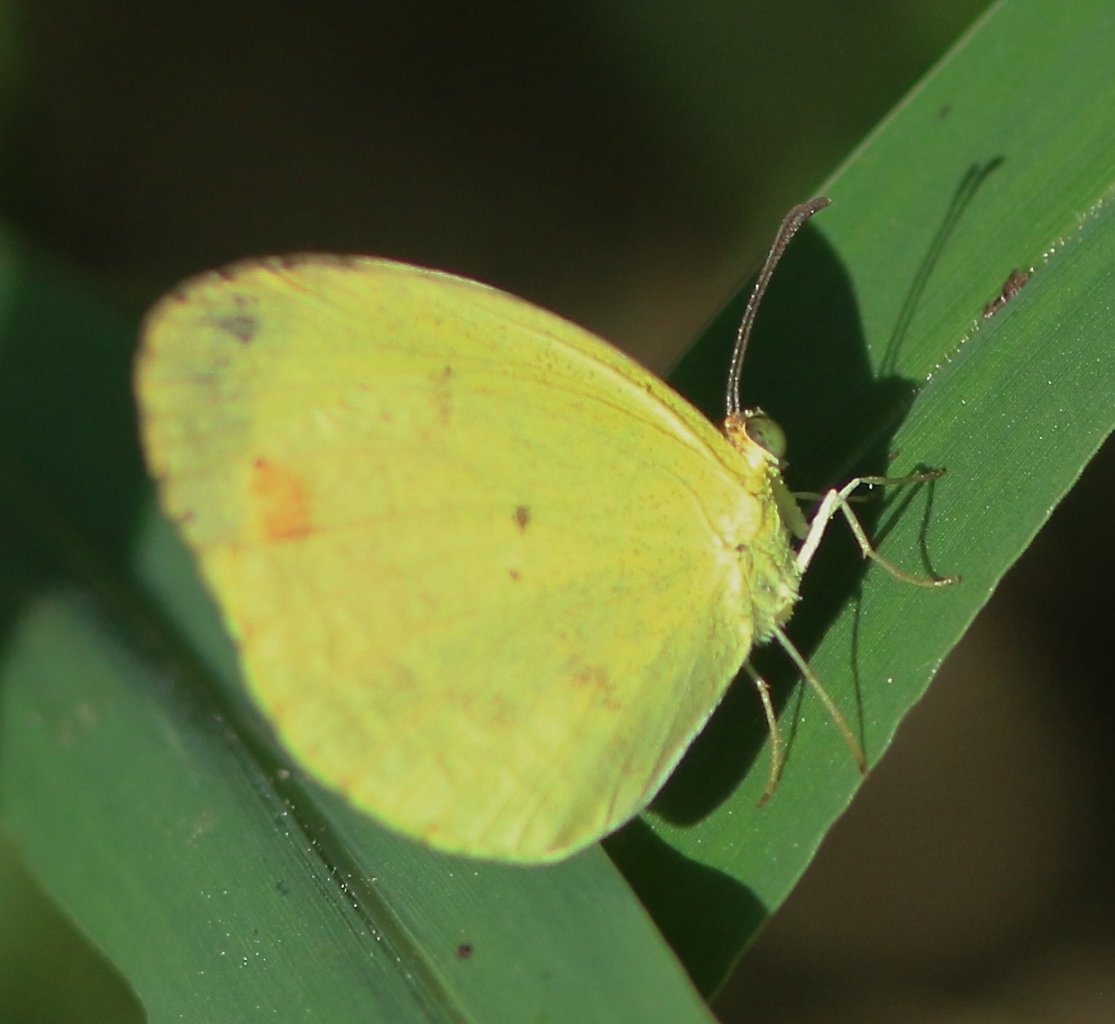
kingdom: Animalia
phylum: Arthropoda
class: Insecta
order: Lepidoptera
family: Pieridae
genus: Pyrisitia
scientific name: Pyrisitia nise
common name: Mimosa Yellow
